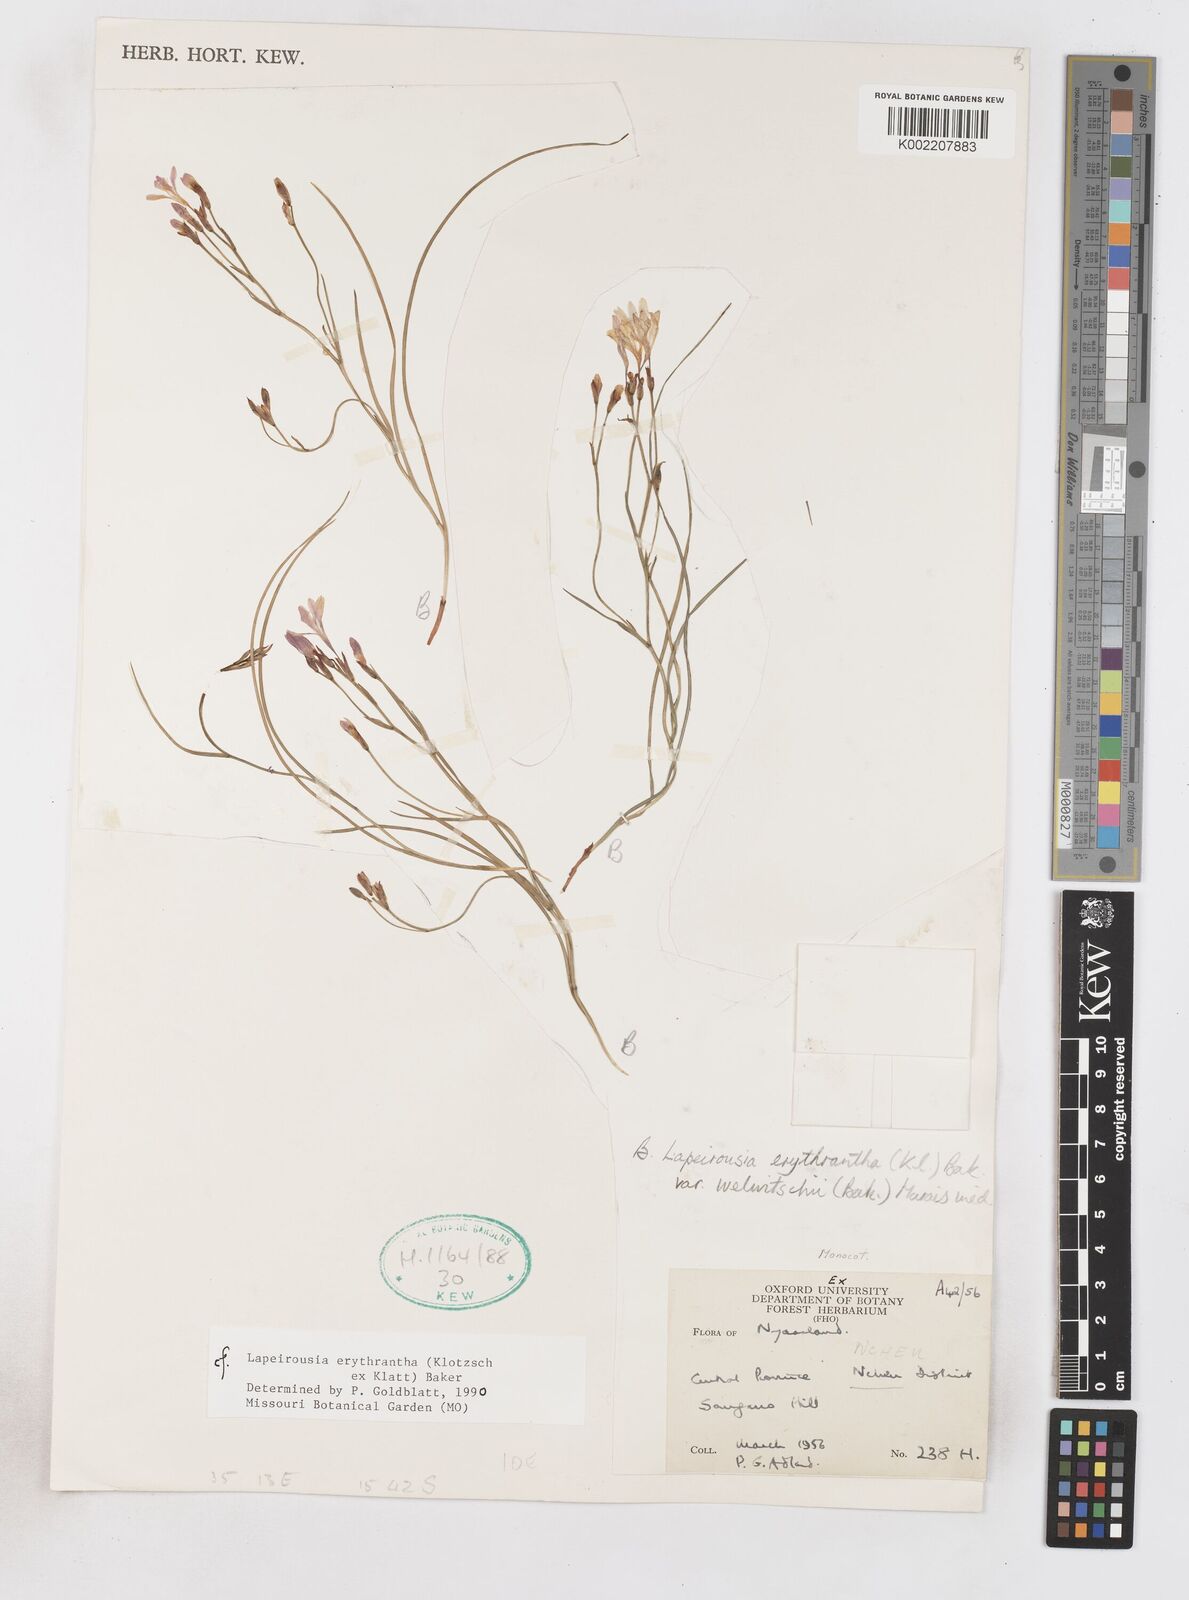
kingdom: Plantae
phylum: Tracheophyta
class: Liliopsida
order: Asparagales
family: Iridaceae
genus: Afrosolen
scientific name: Afrosolen erythranthus
